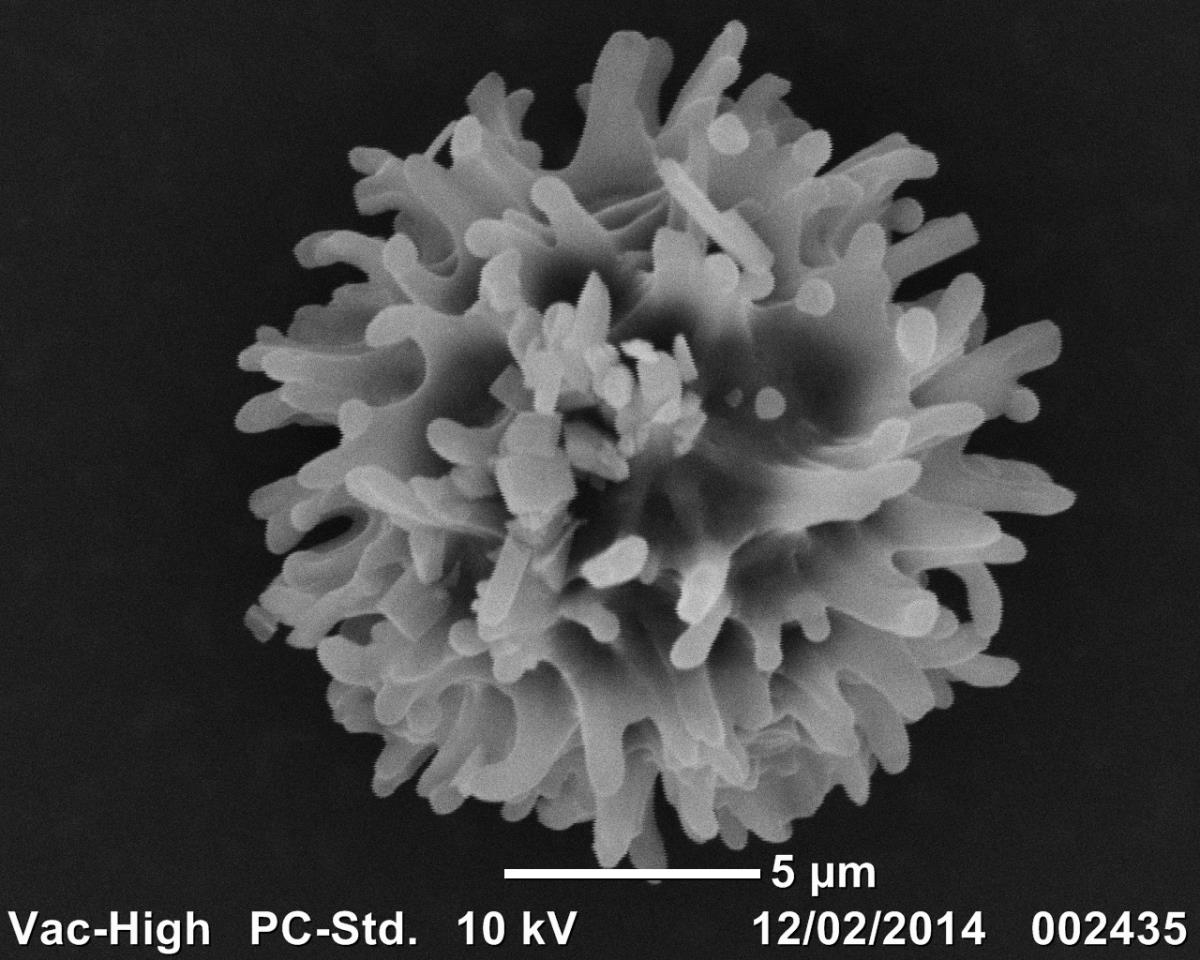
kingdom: Fungi
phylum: Basidiomycota
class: Agaricomycetes
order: Russulales
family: Russulaceae
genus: Russula
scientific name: Russula osphranticarpa
